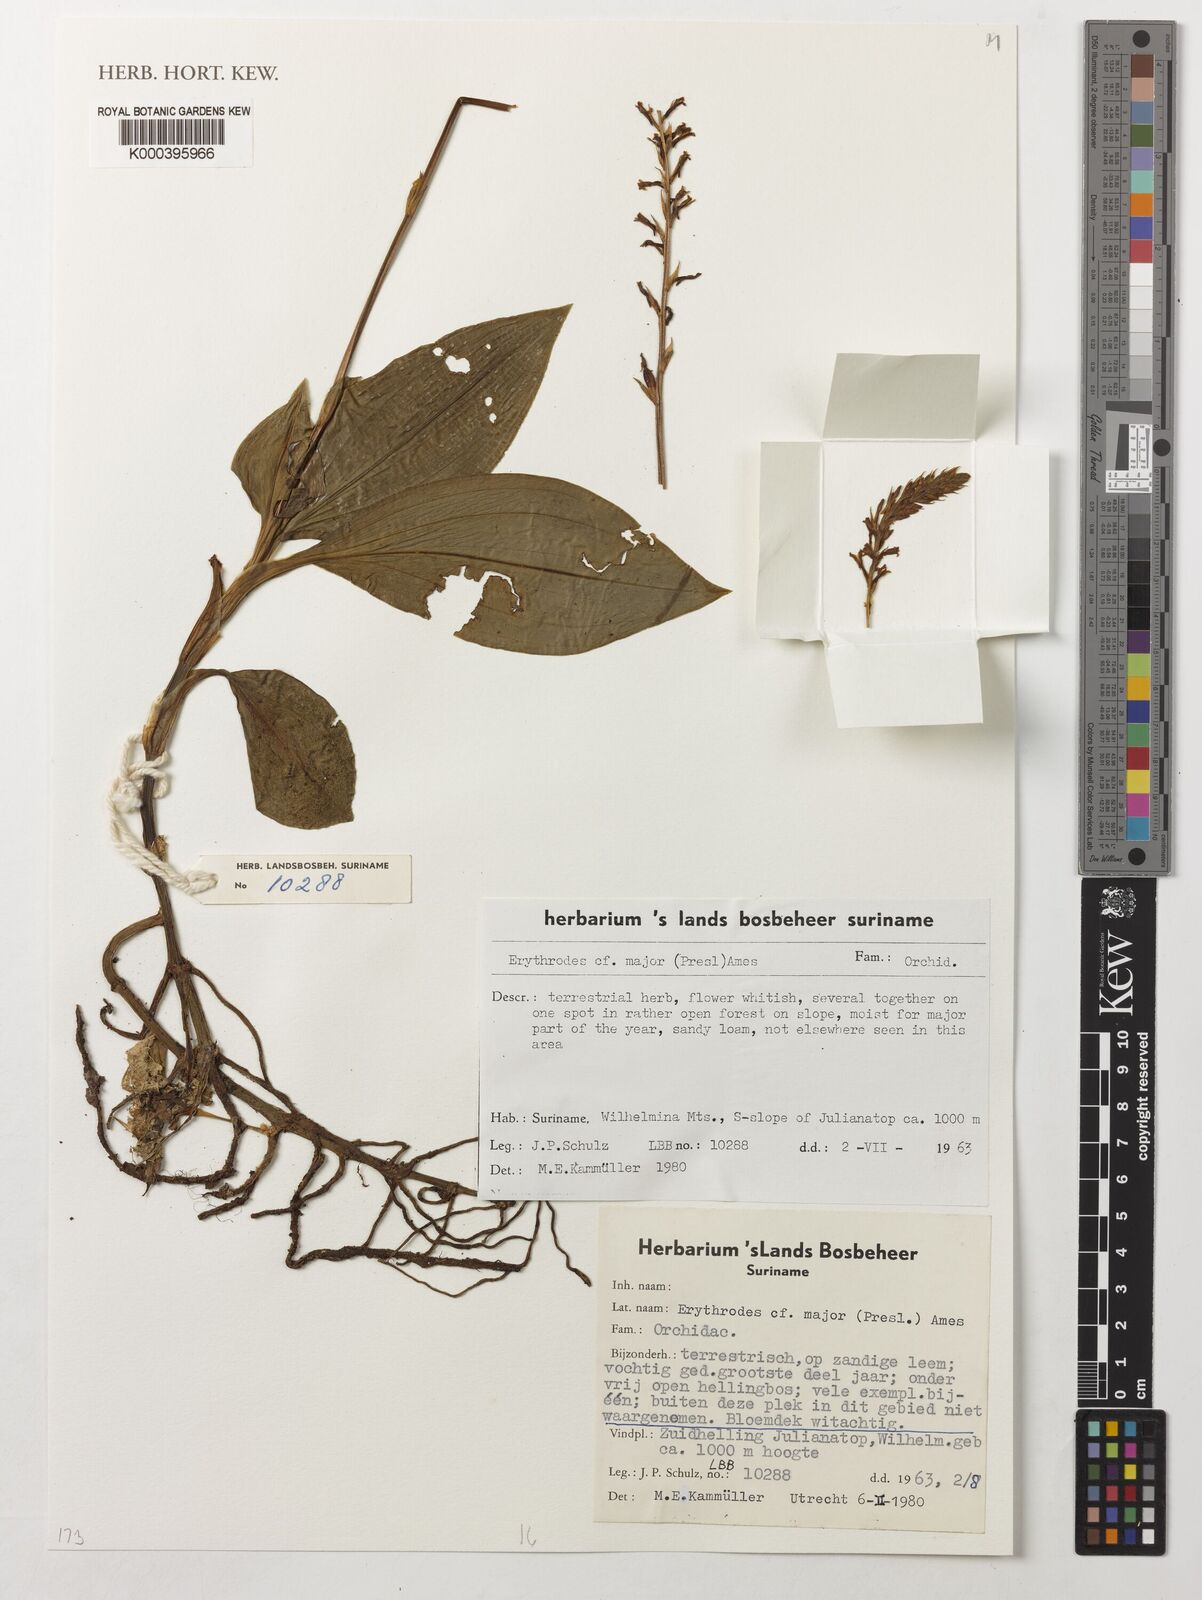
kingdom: Plantae
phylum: Tracheophyta
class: Liliopsida
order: Asparagales
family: Orchidaceae
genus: Microchilus
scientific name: Microchilus major
